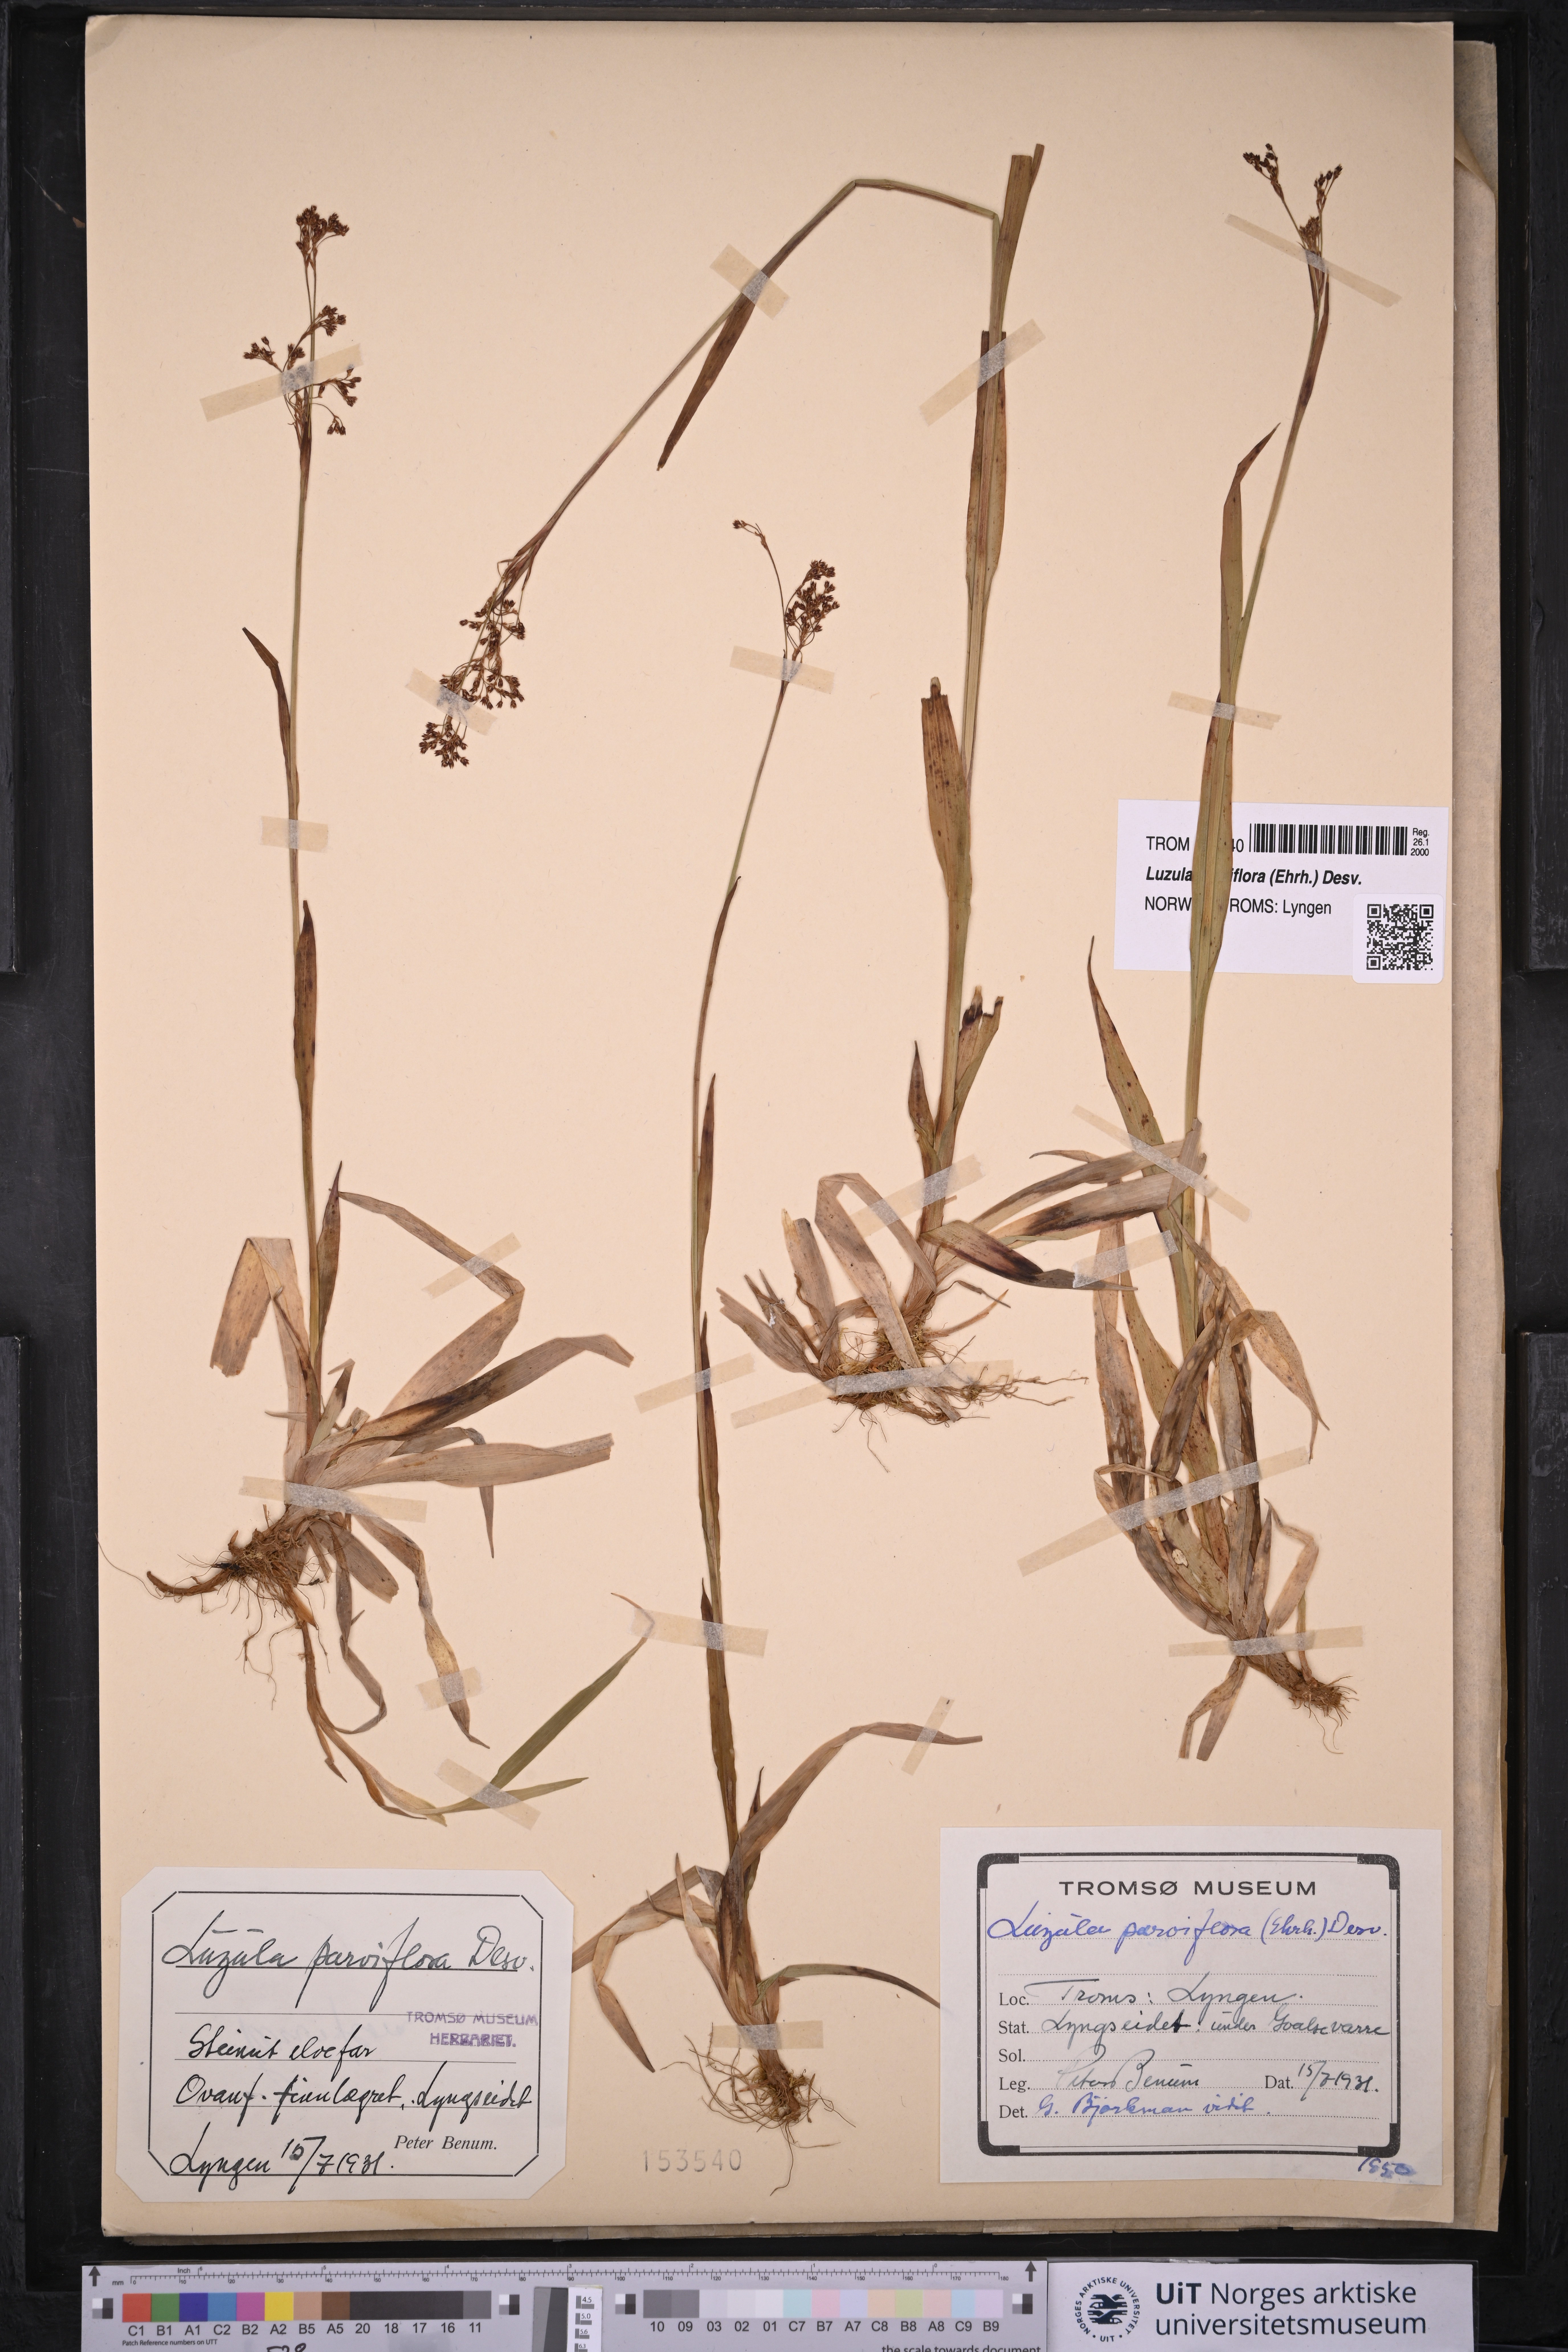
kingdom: Plantae
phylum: Tracheophyta
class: Liliopsida
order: Poales
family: Juncaceae
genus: Luzula
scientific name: Luzula parviflora
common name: Millet woodrush
